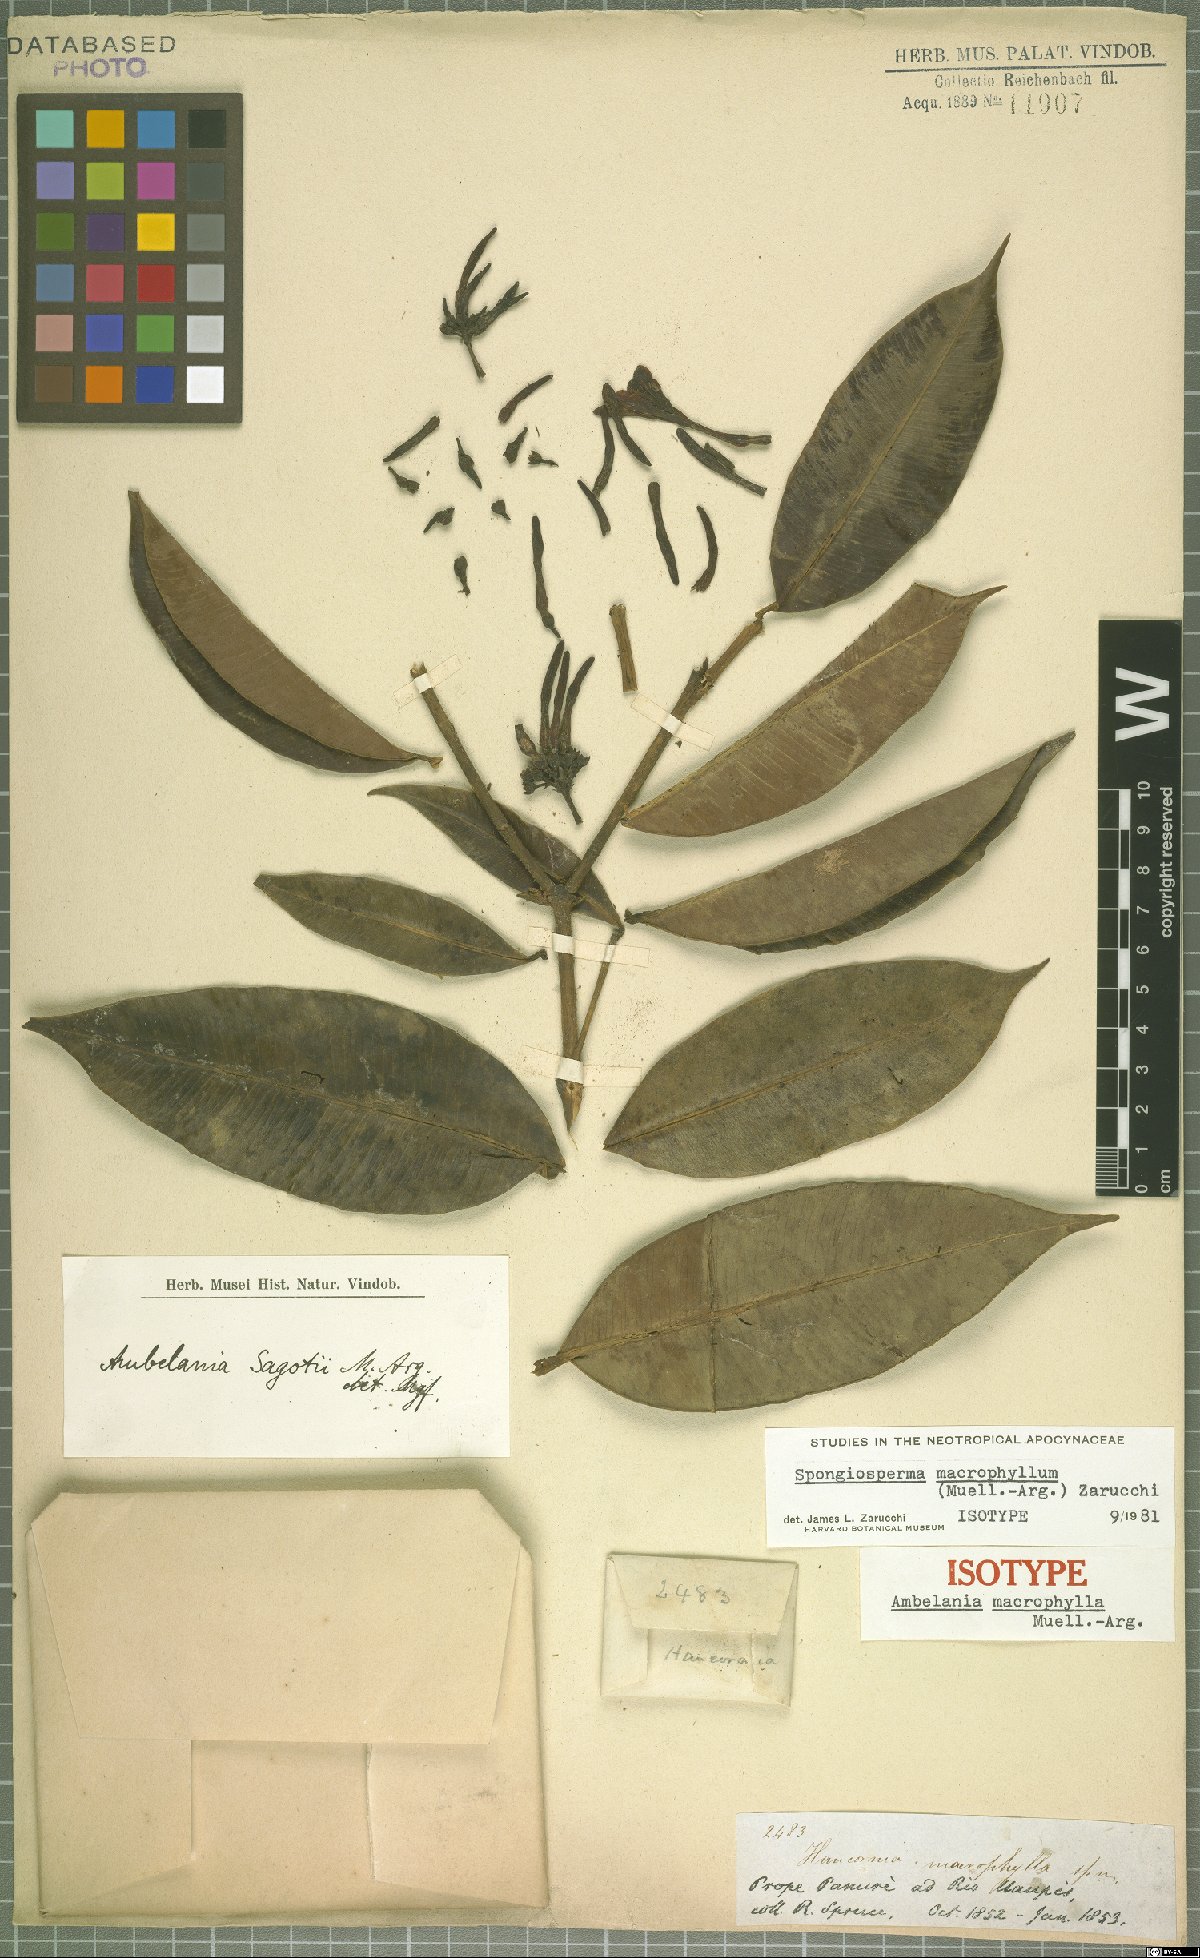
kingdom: Plantae
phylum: Tracheophyta
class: Magnoliopsida
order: Gentianales
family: Apocynaceae
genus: Spongiosperma
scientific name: Spongiosperma macrophyllum
